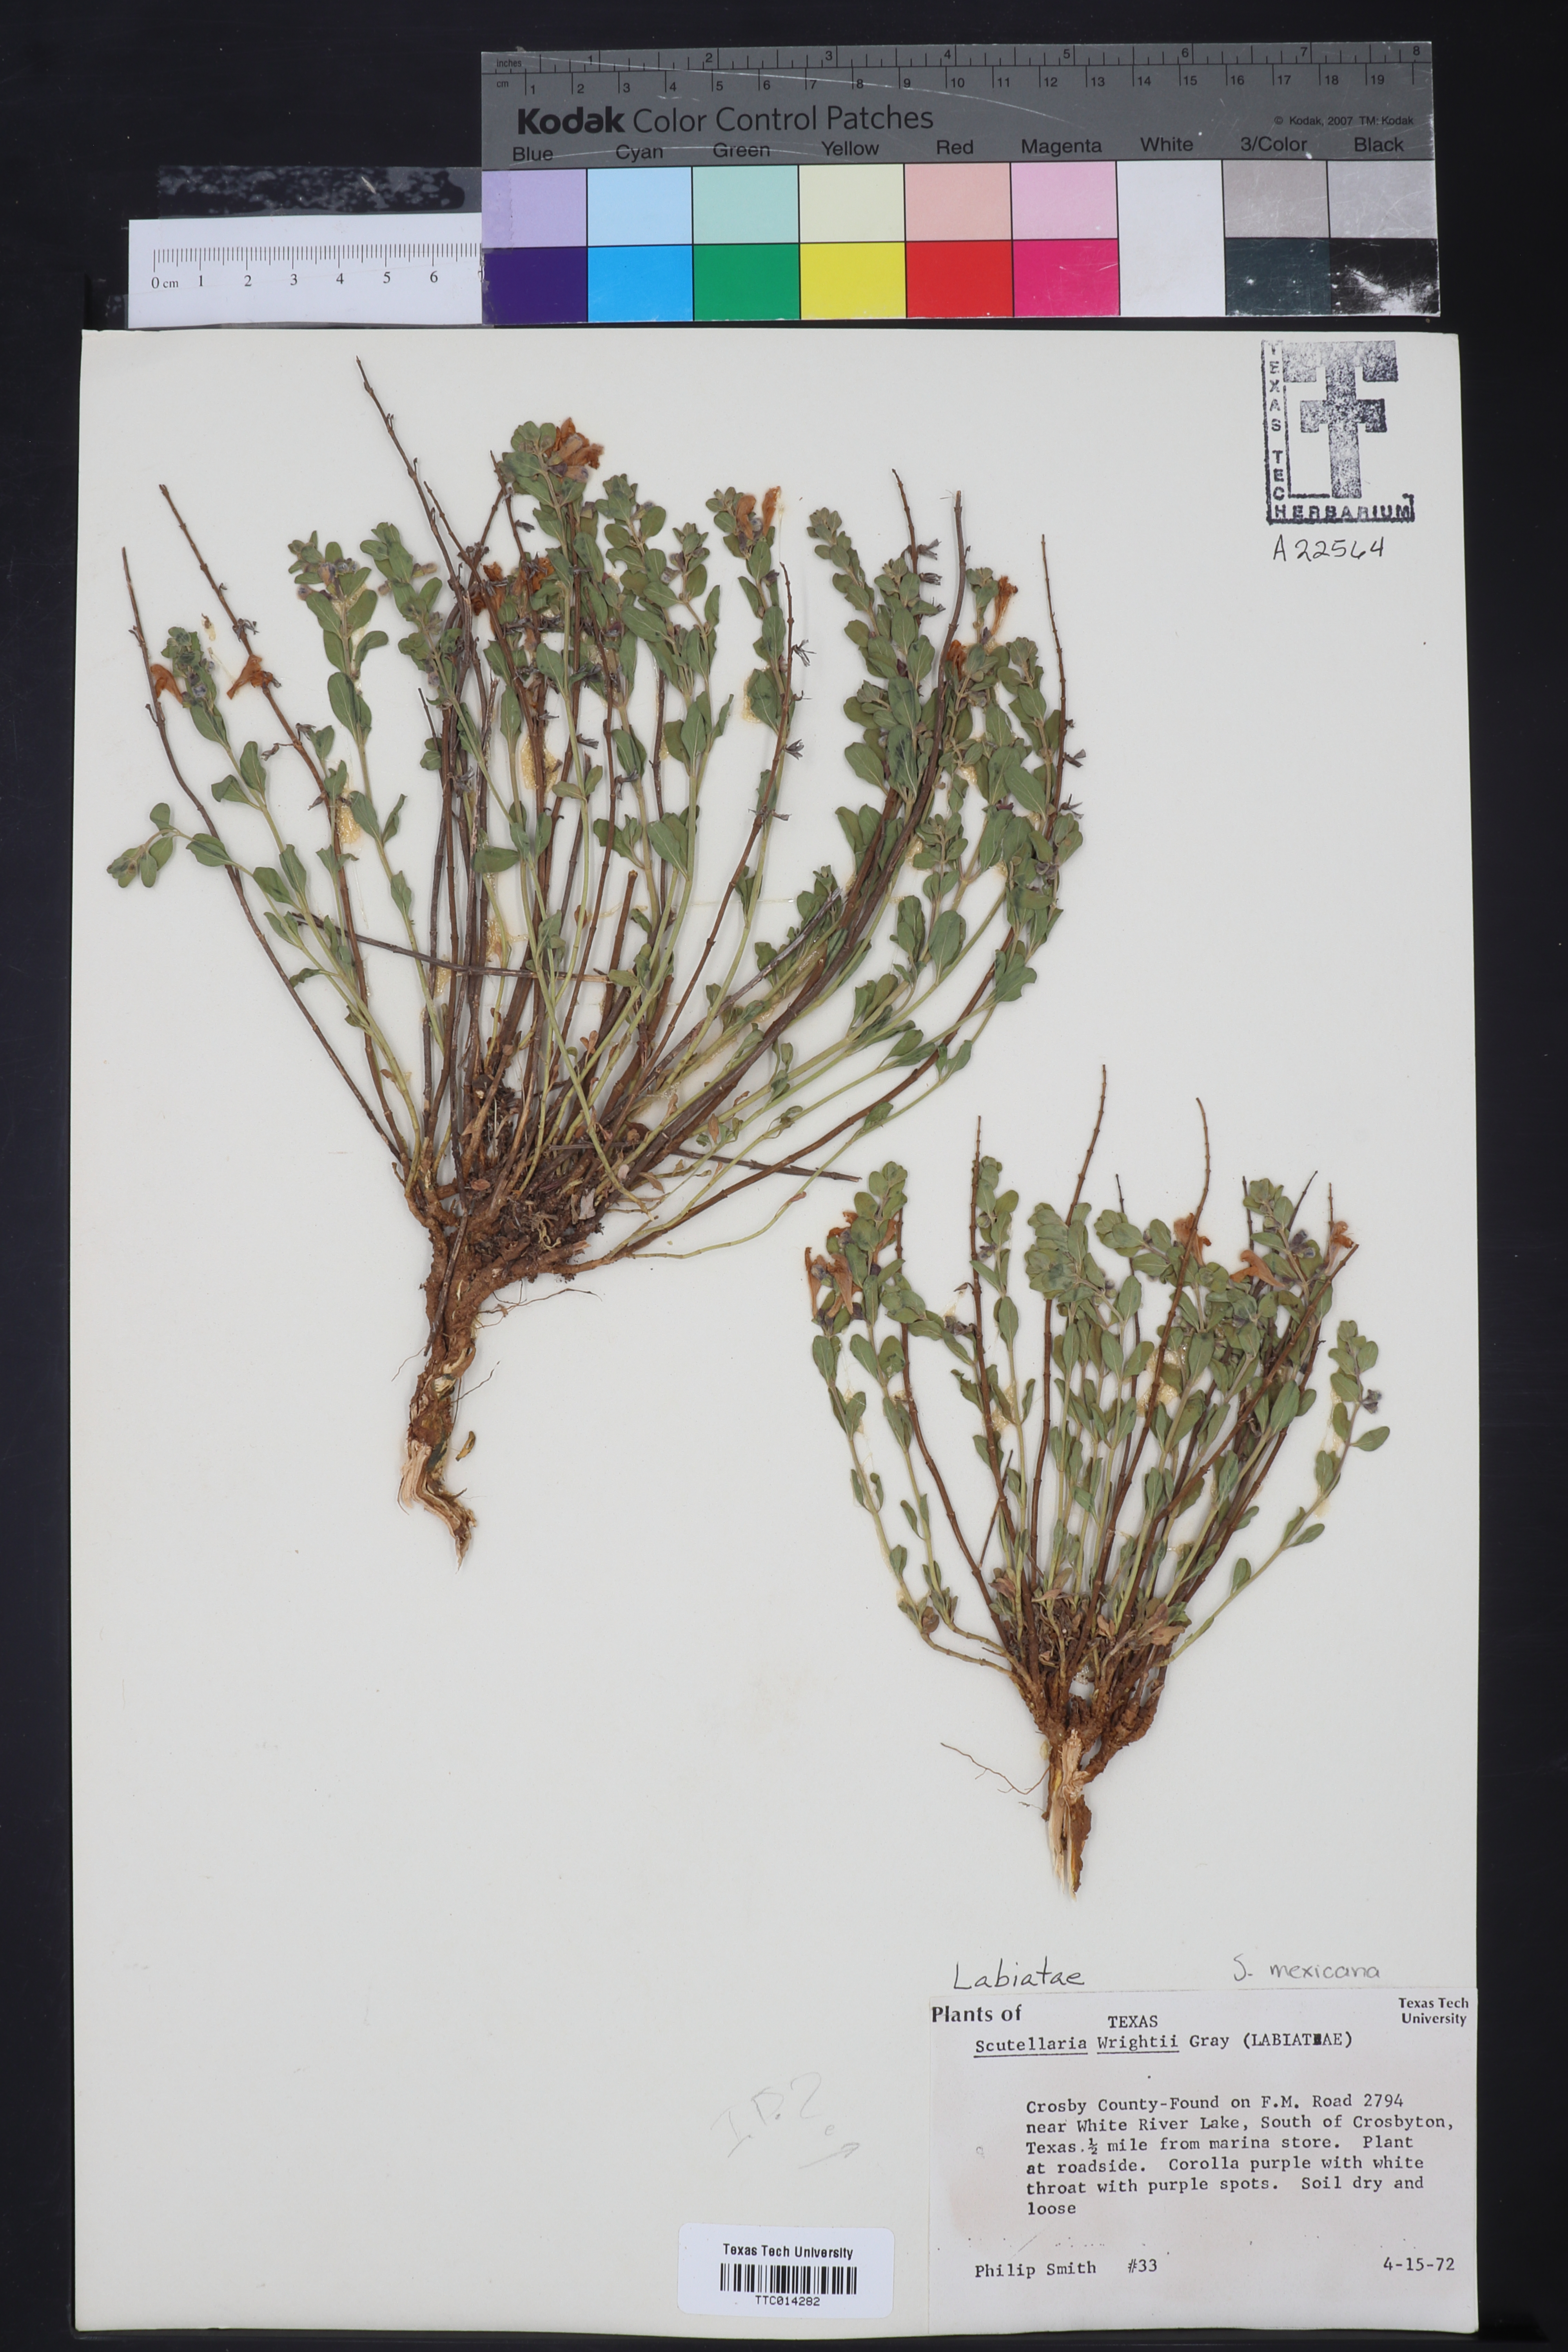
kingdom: Plantae
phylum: Tracheophyta
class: Magnoliopsida
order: Lamiales
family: Lamiaceae
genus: Scutellaria
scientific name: Scutellaria wrightii
